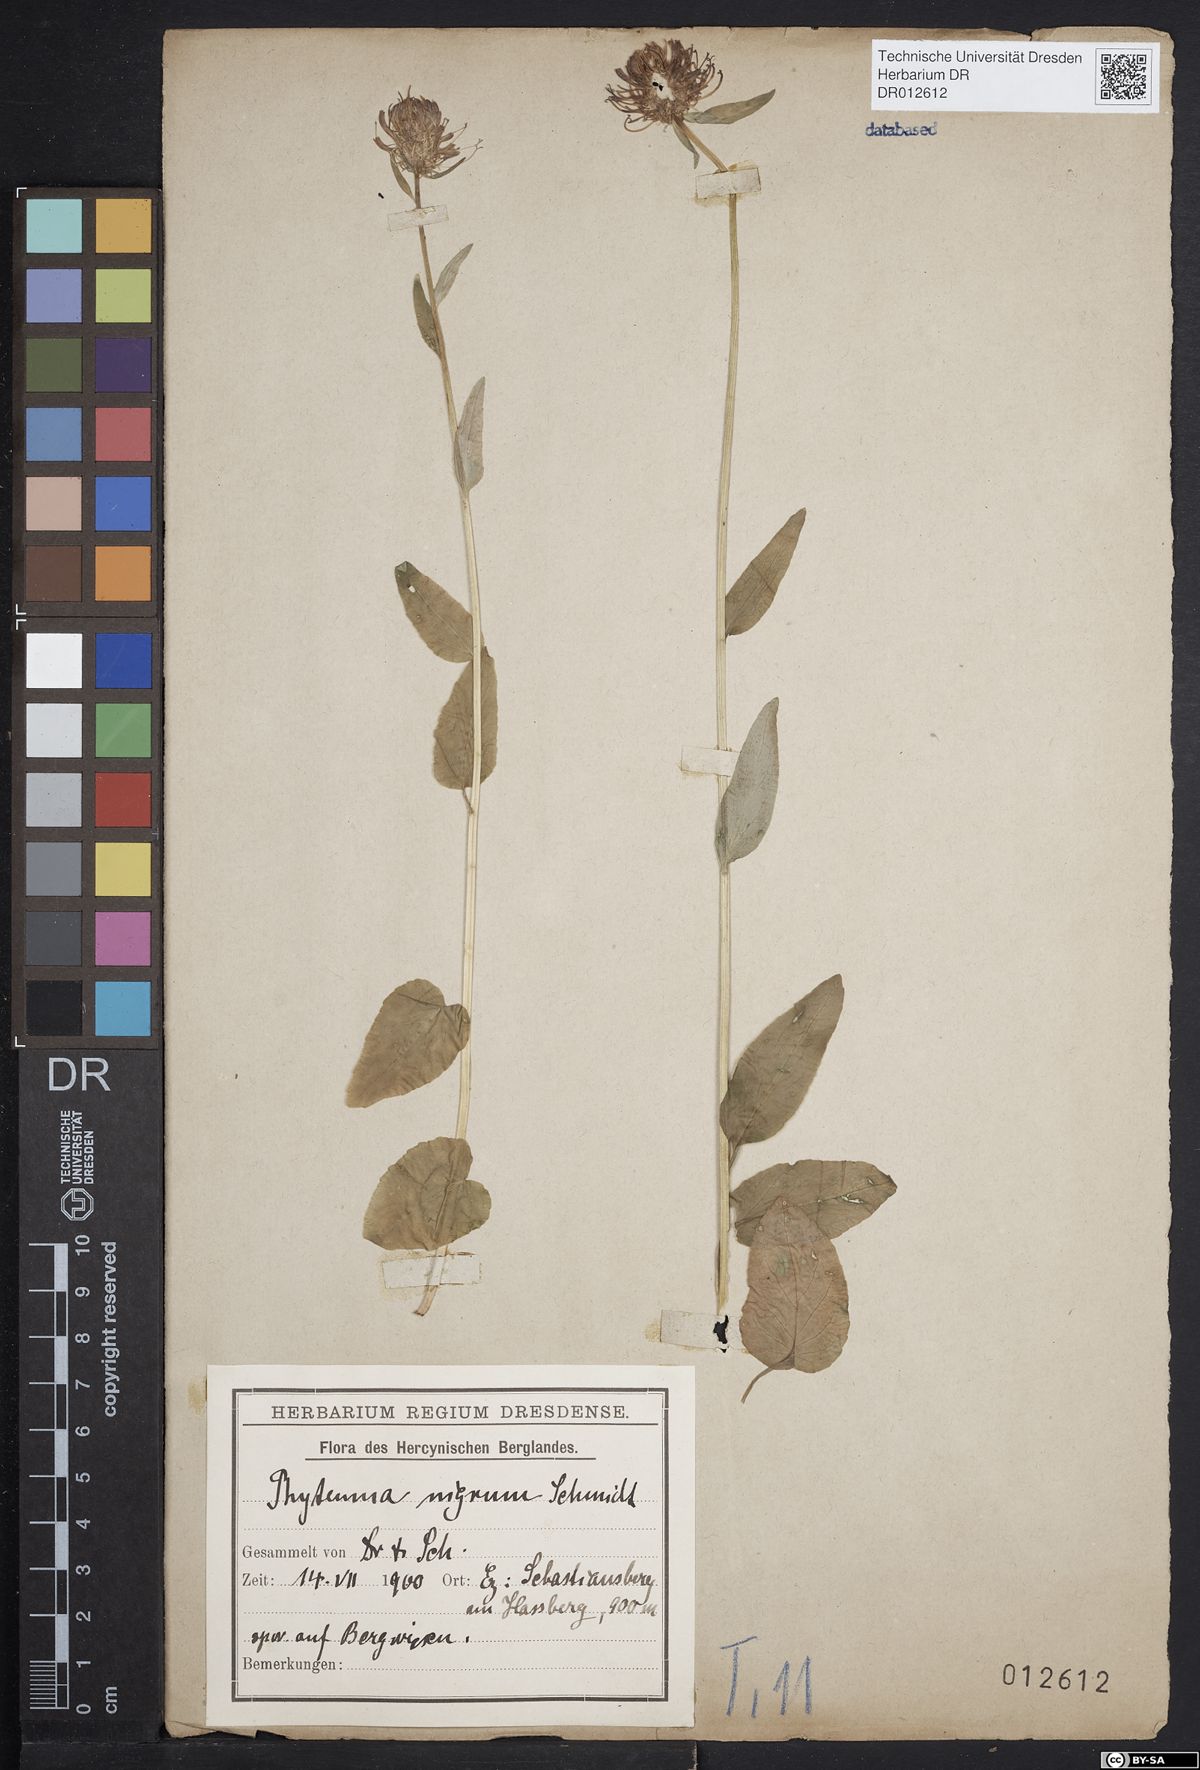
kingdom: Plantae
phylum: Tracheophyta
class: Magnoliopsida
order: Asterales
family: Campanulaceae
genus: Phyteuma
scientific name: Phyteuma nigrum
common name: Black rampion
